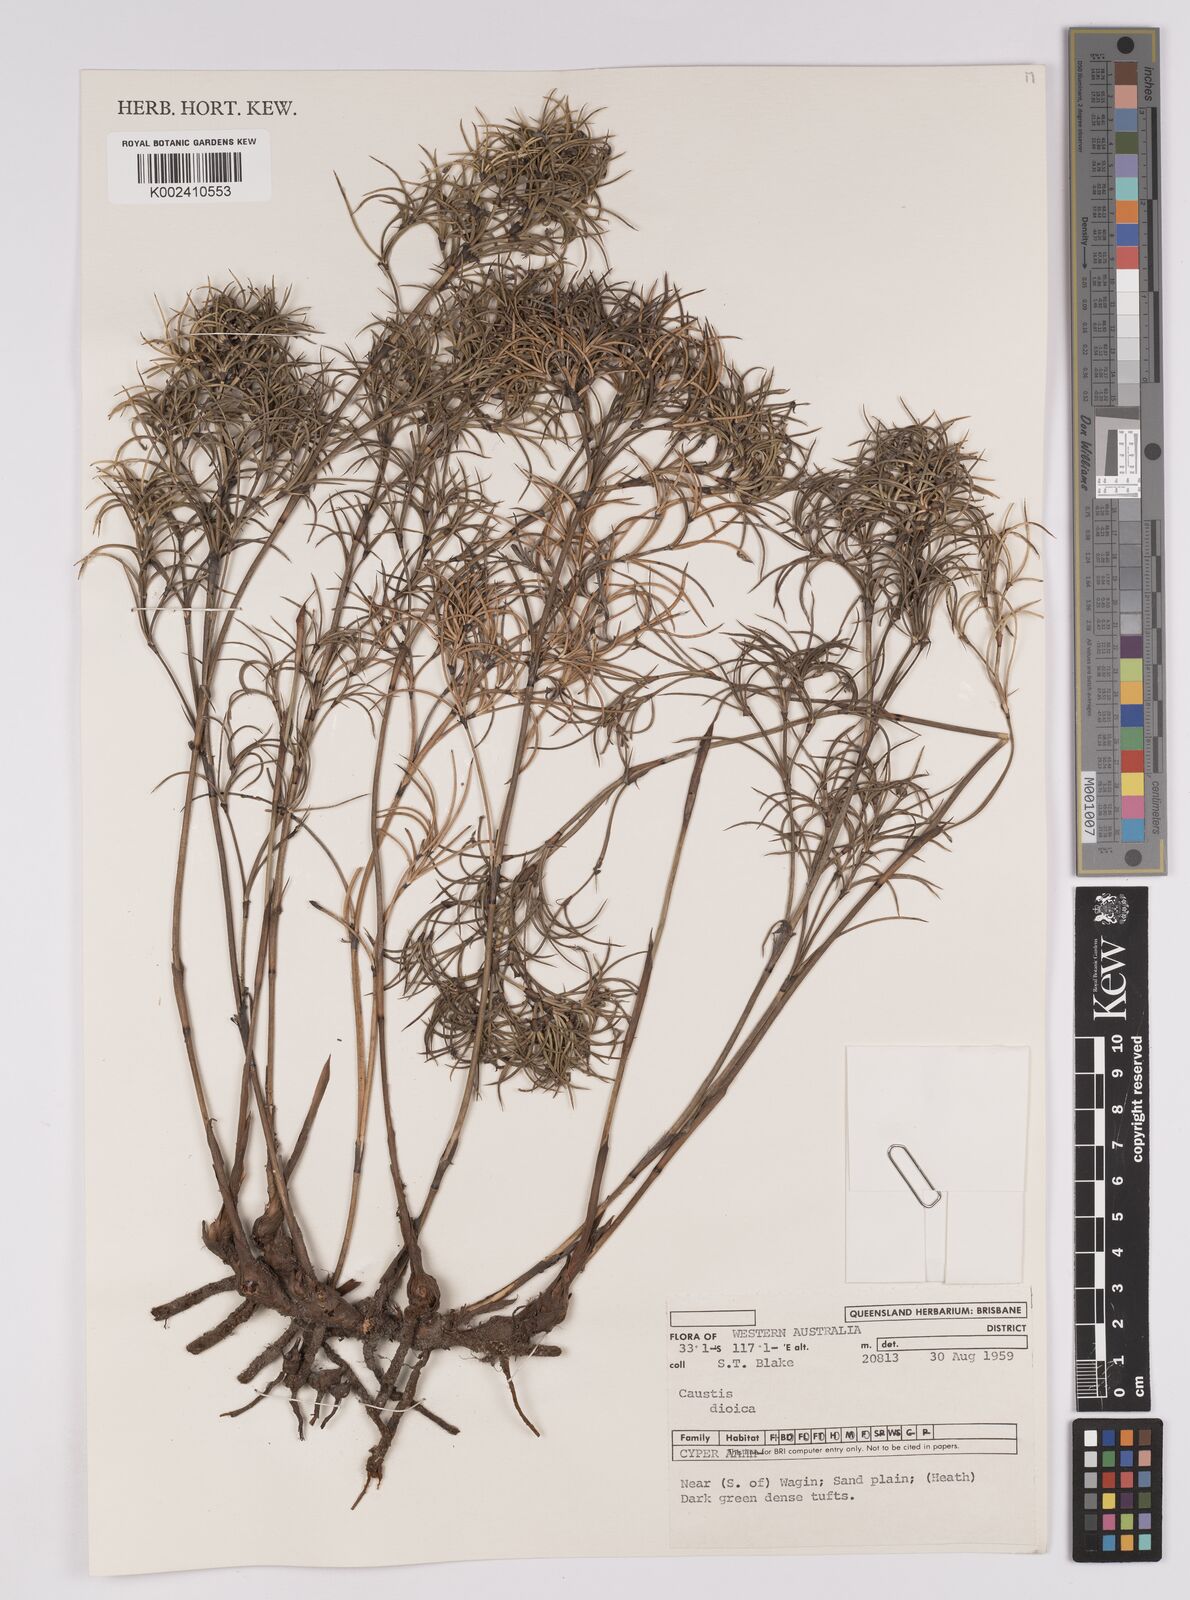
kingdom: Plantae
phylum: Tracheophyta
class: Liliopsida
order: Poales
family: Cyperaceae
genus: Caustis
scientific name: Caustis dioica
